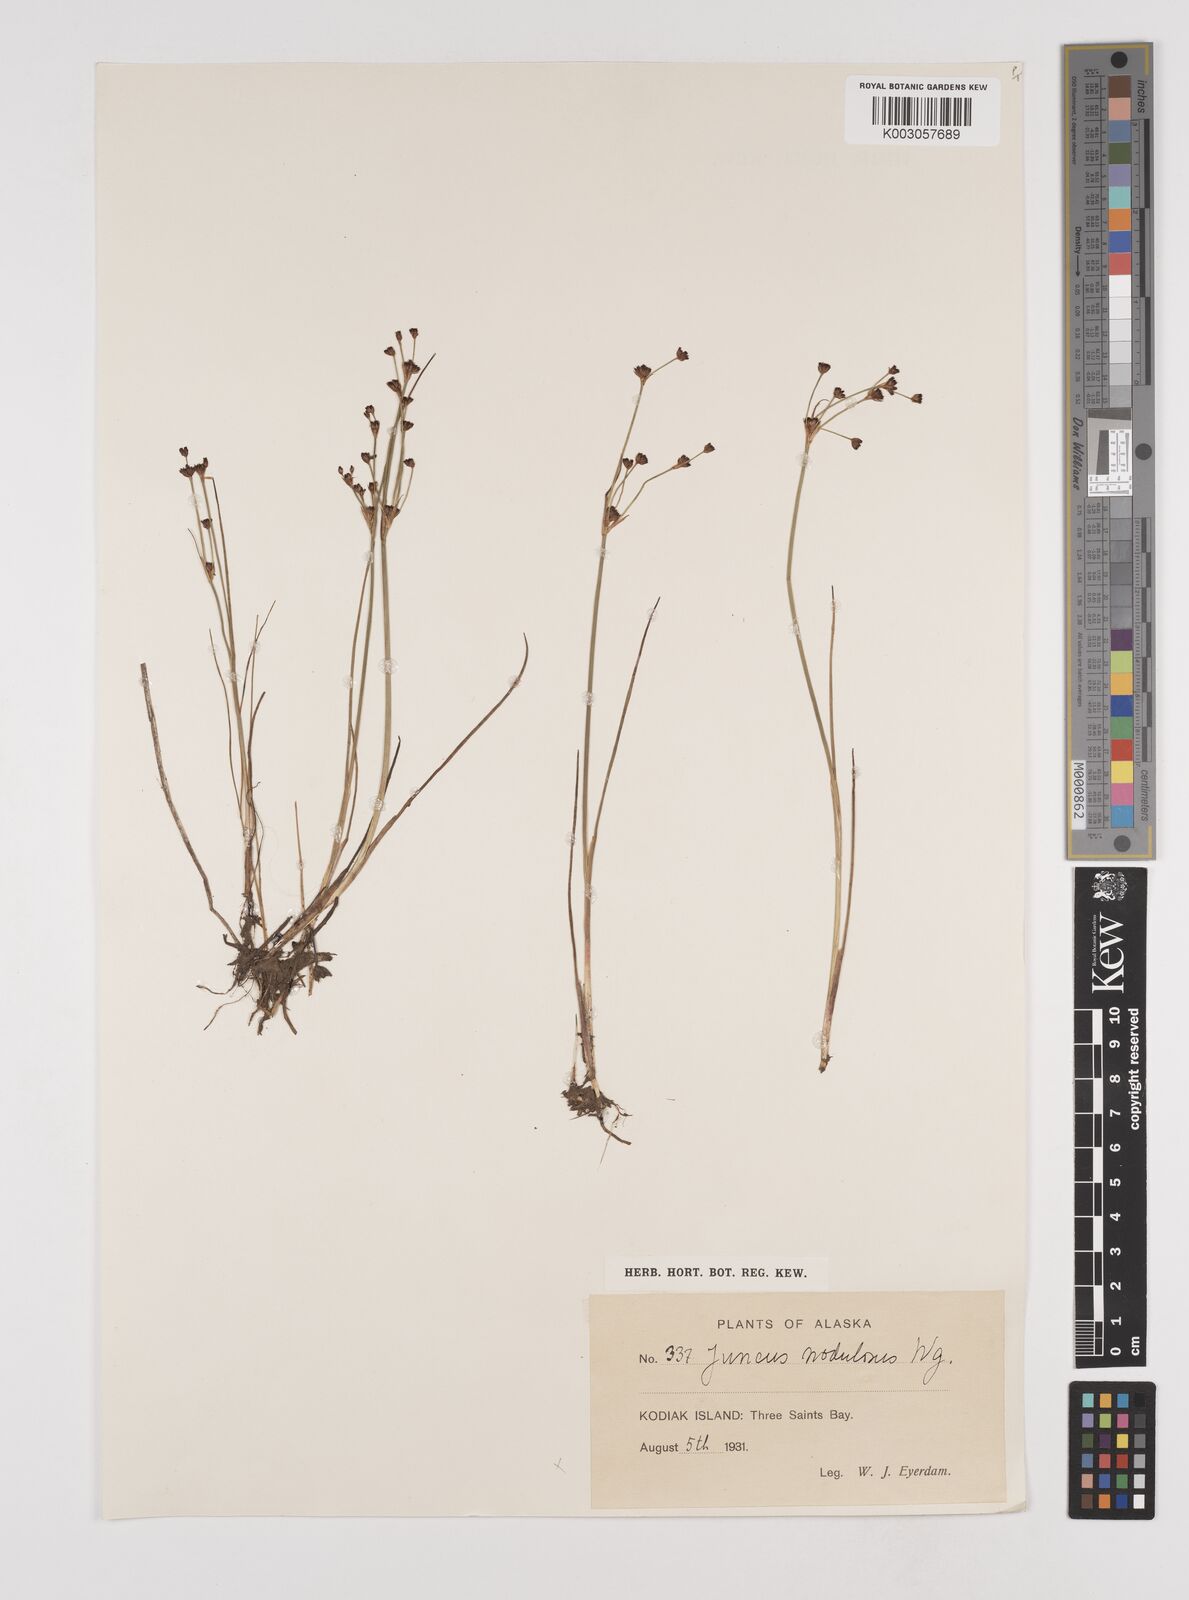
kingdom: Plantae
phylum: Tracheophyta
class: Liliopsida
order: Poales
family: Juncaceae
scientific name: Juncaceae
